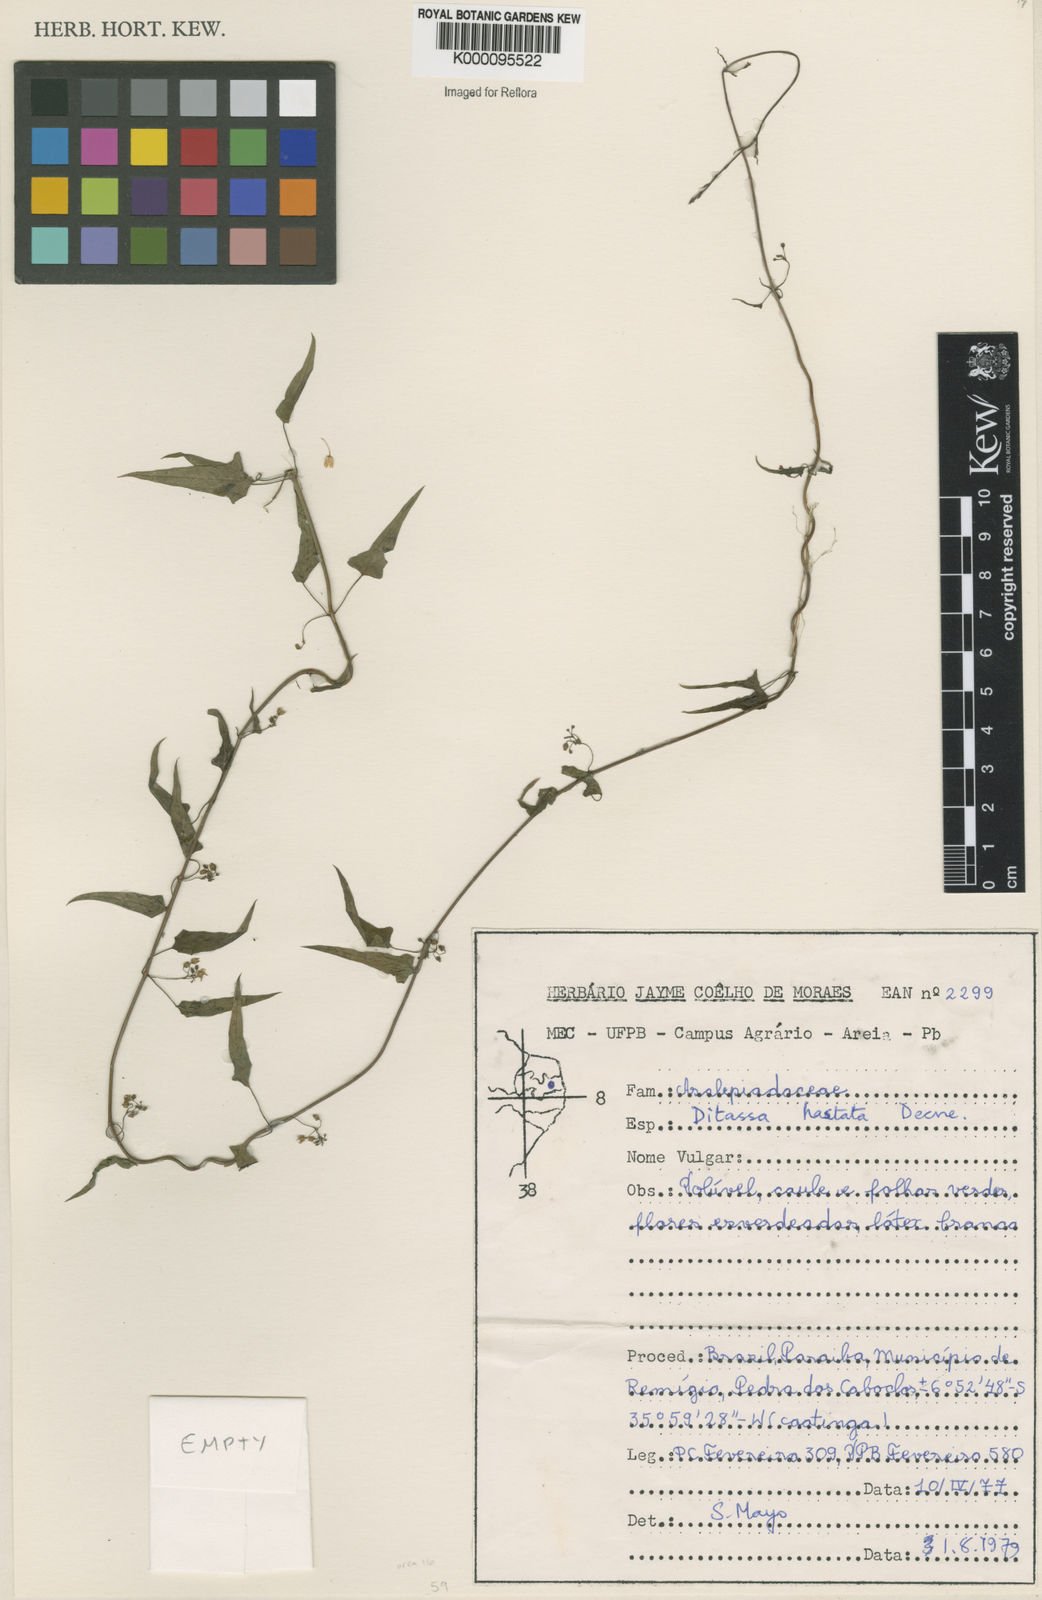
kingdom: Plantae
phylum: Tracheophyta
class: Magnoliopsida
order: Gentianales
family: Apocynaceae
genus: Ditassa
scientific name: Ditassa hastata
